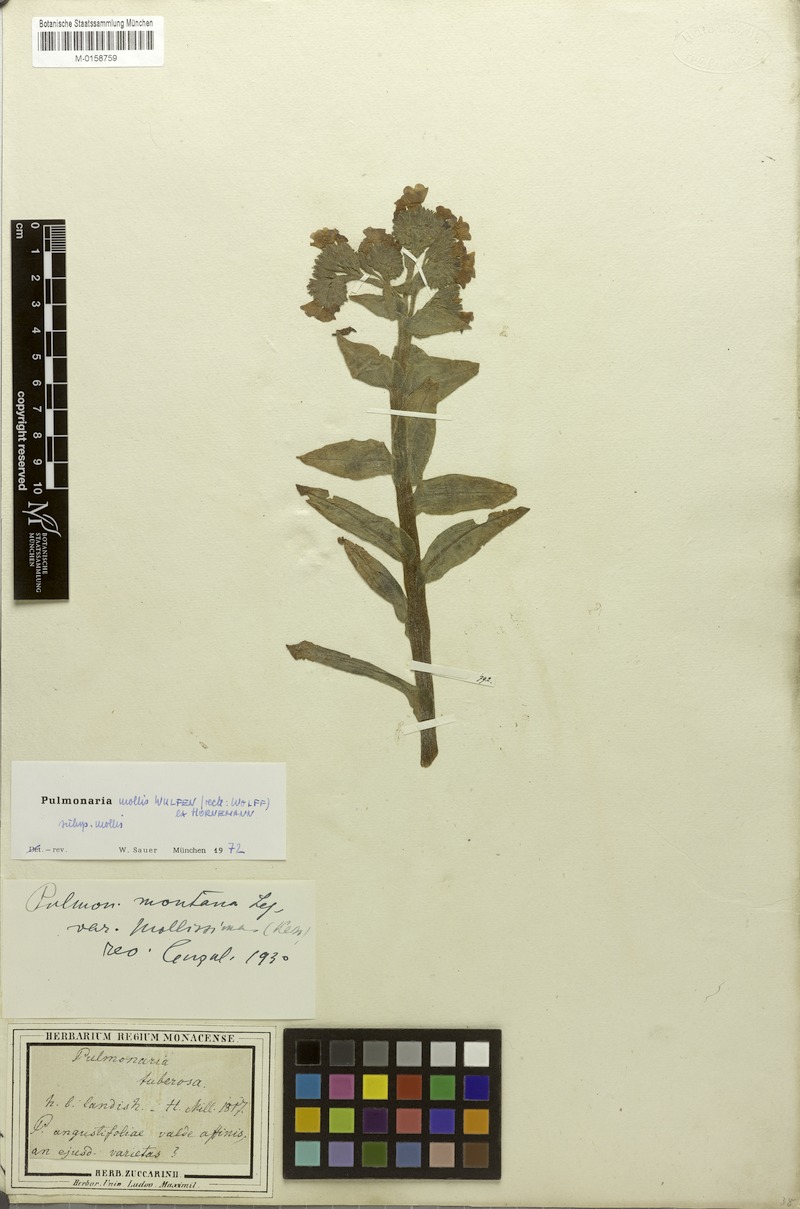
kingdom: Plantae
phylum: Tracheophyta
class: Magnoliopsida
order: Boraginales
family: Boraginaceae
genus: Pulmonaria
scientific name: Pulmonaria mollis
